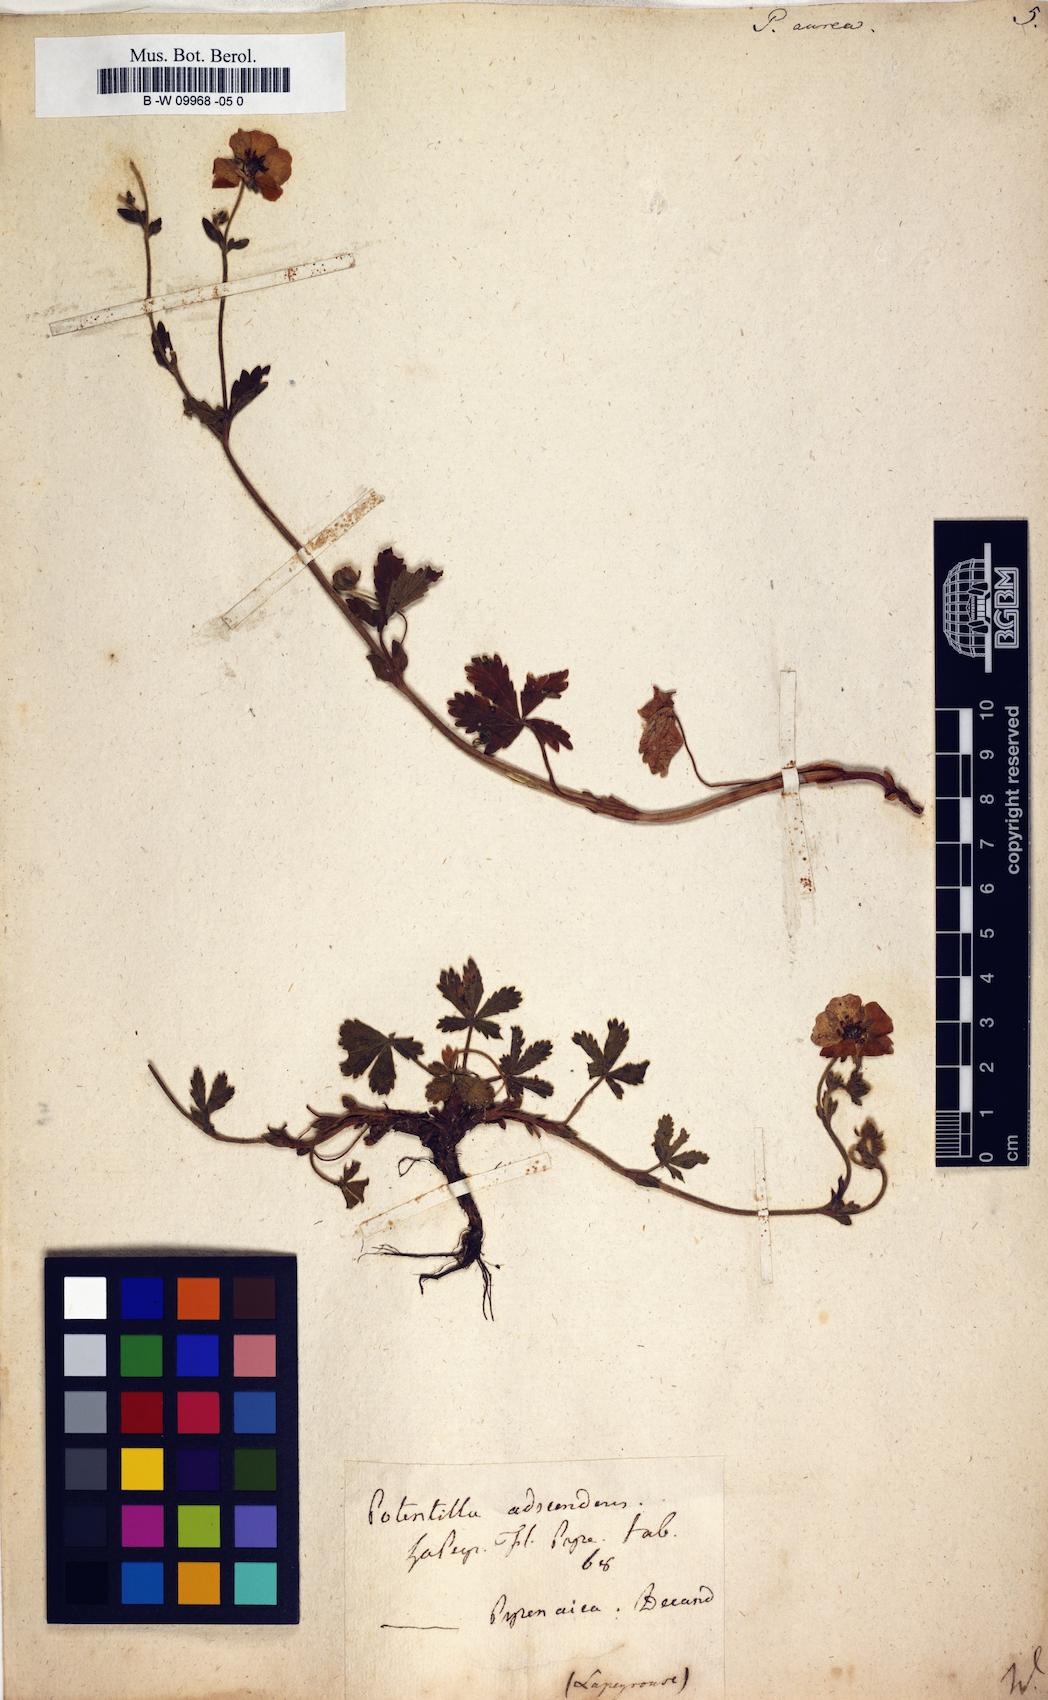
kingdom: Plantae
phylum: Tracheophyta
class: Magnoliopsida
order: Rosales
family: Rosaceae
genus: Potentilla
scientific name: Potentilla aurea
